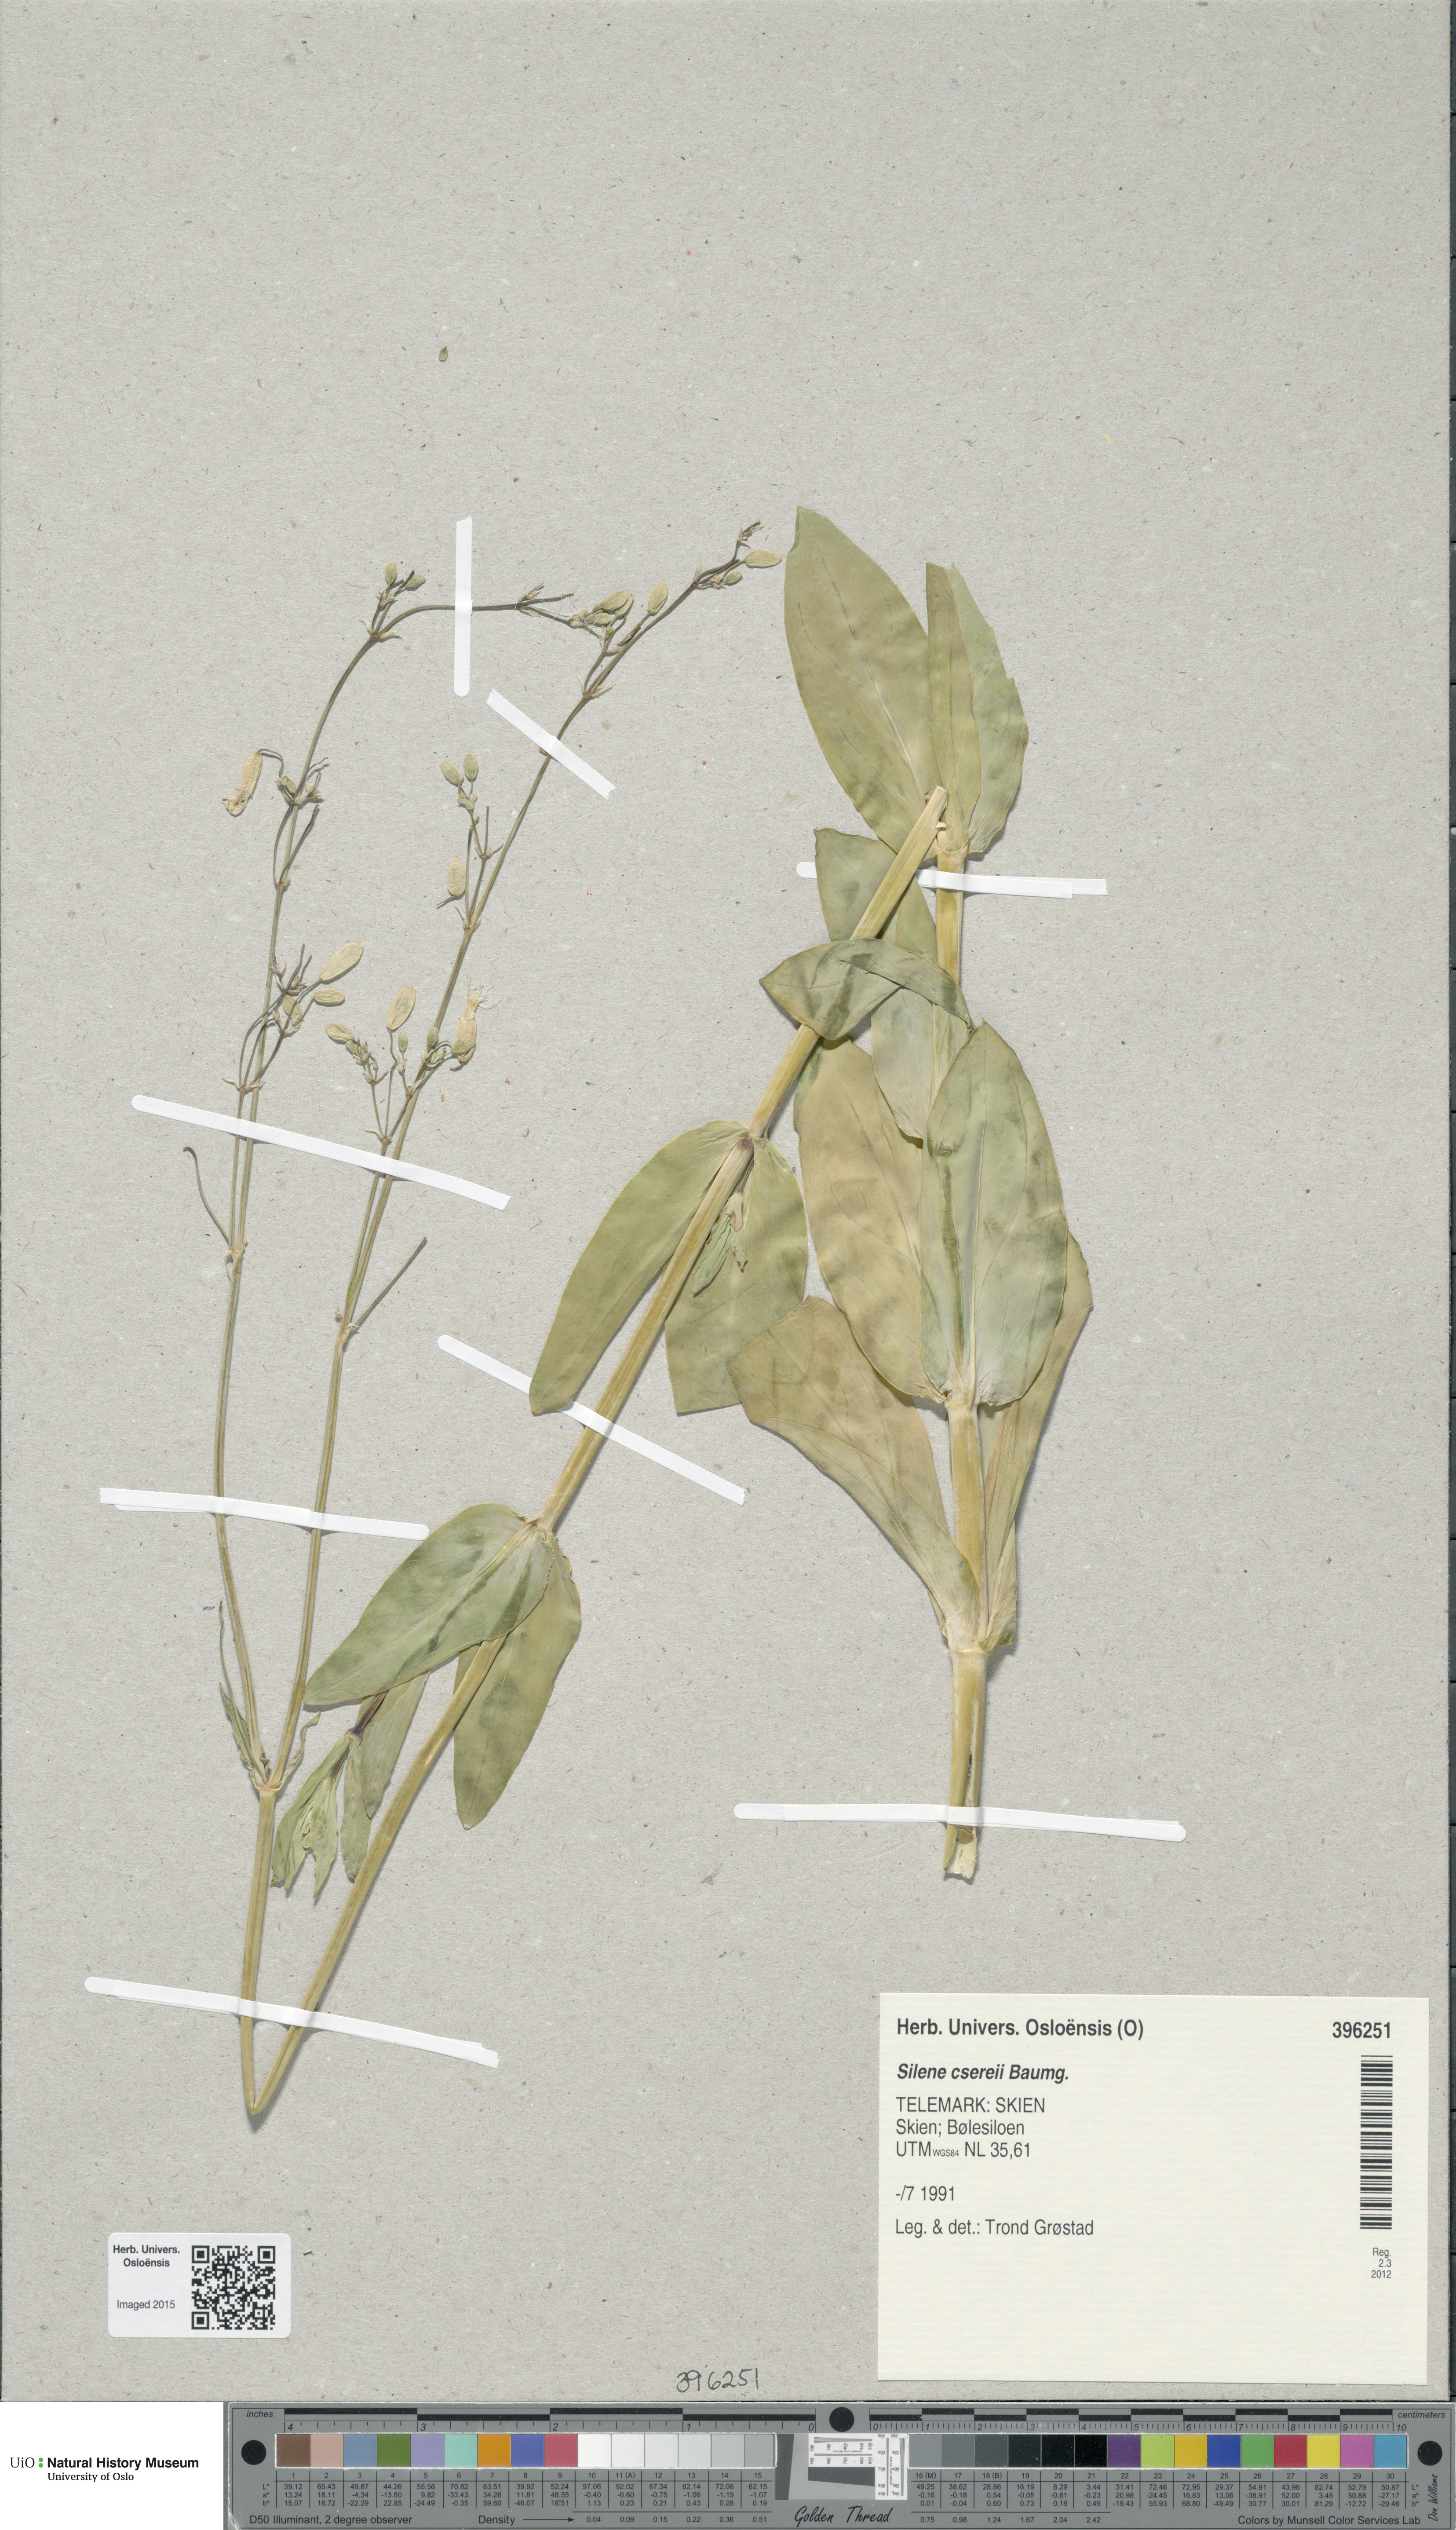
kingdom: Plantae
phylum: Tracheophyta
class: Magnoliopsida
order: Caryophyllales
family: Caryophyllaceae
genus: Silene
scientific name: Silene csereii
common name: Balkan catchfly
